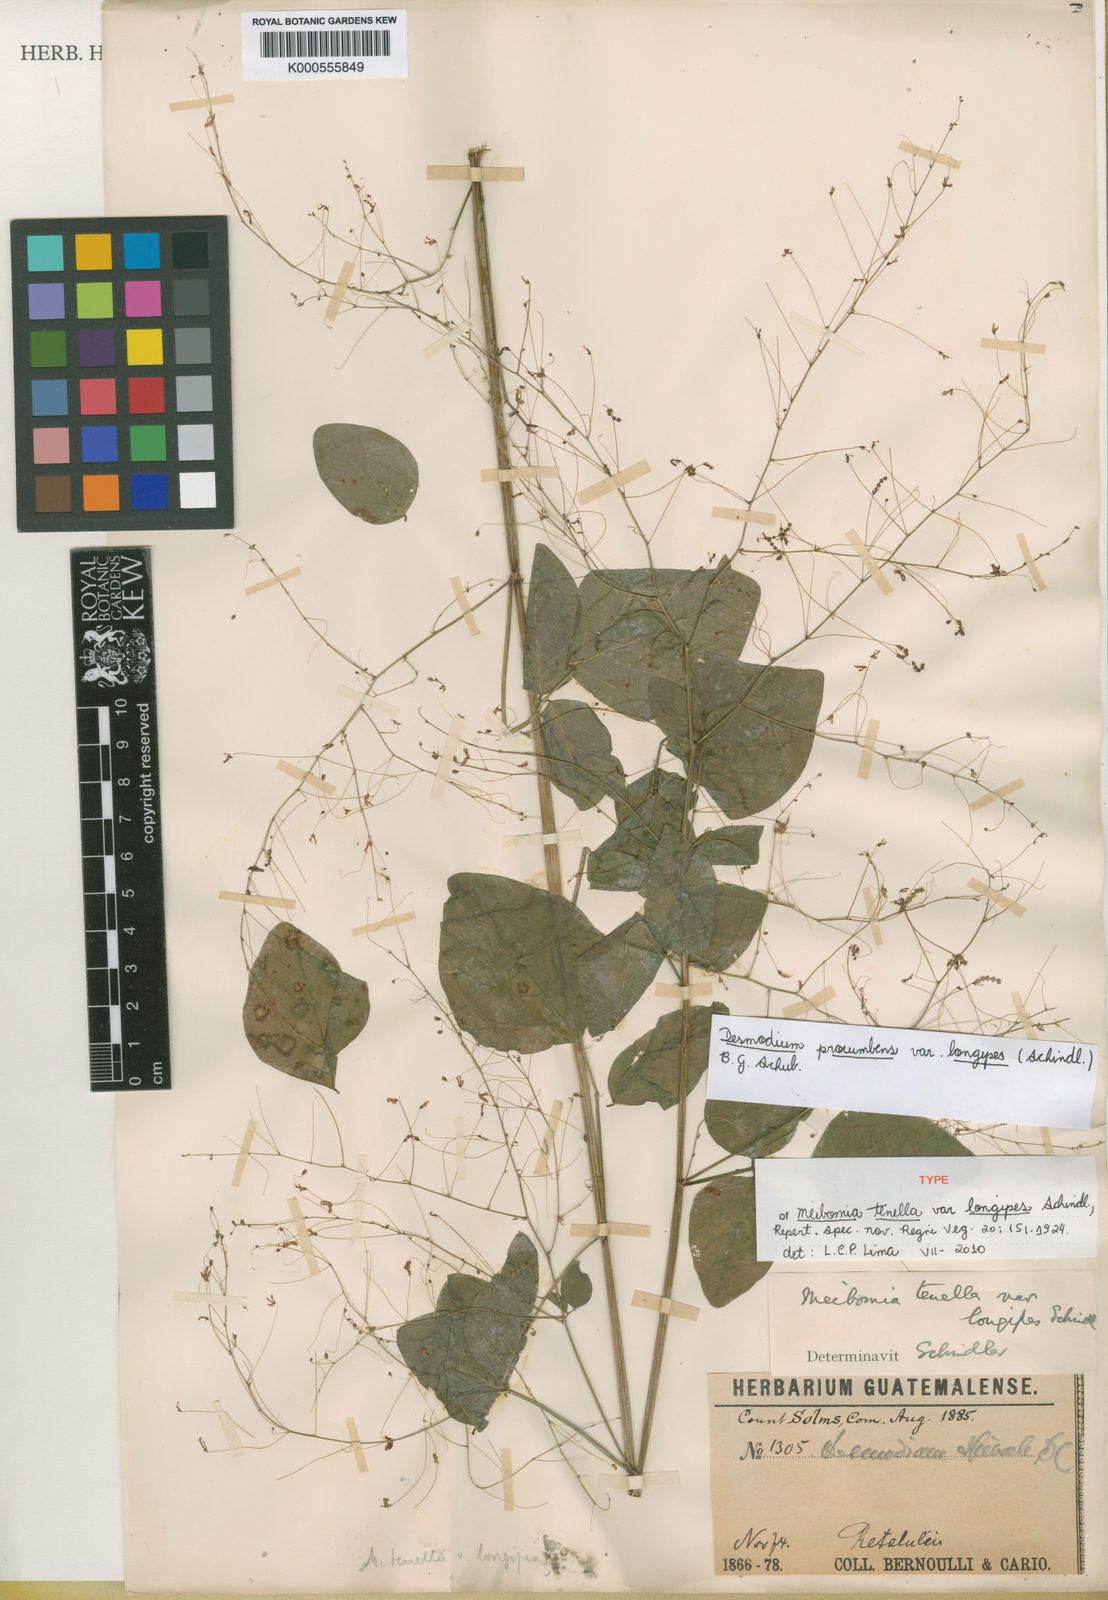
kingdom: Plantae
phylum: Tracheophyta
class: Magnoliopsida
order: Fabales
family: Fabaceae
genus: Desmodium
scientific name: Desmodium procumbens
